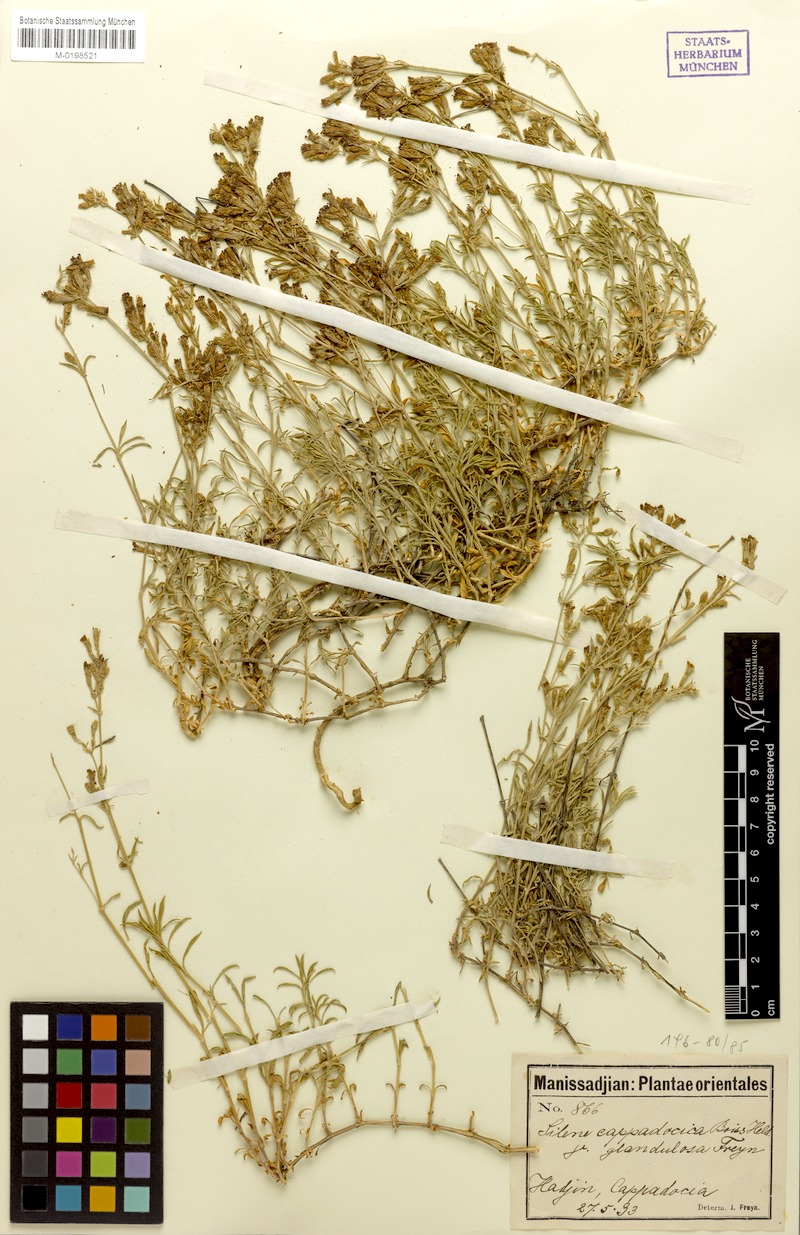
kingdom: Plantae
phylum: Tracheophyta
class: Magnoliopsida
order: Caryophyllales
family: Caryophyllaceae
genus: Silene
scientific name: Silene cappadocica
